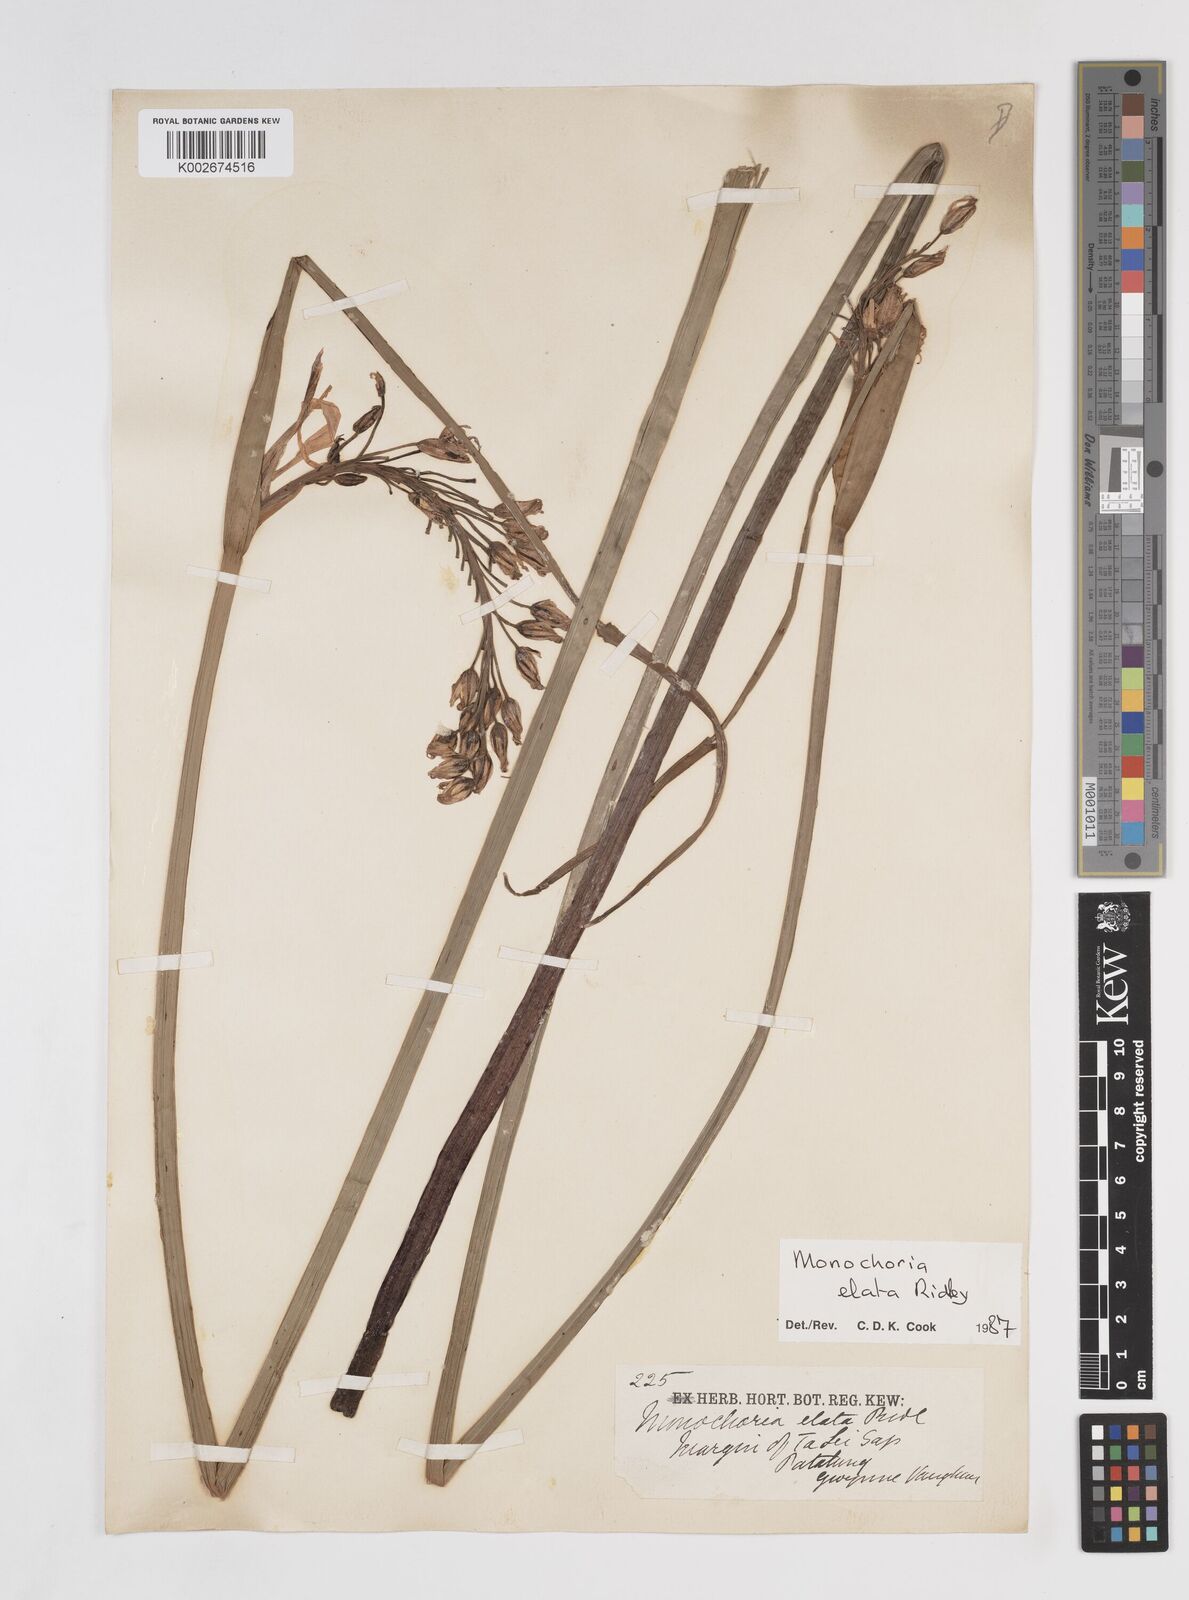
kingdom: Plantae
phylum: Tracheophyta
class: Liliopsida
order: Commelinales
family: Pontederiaceae
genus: Pontederia
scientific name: Pontederia elata
